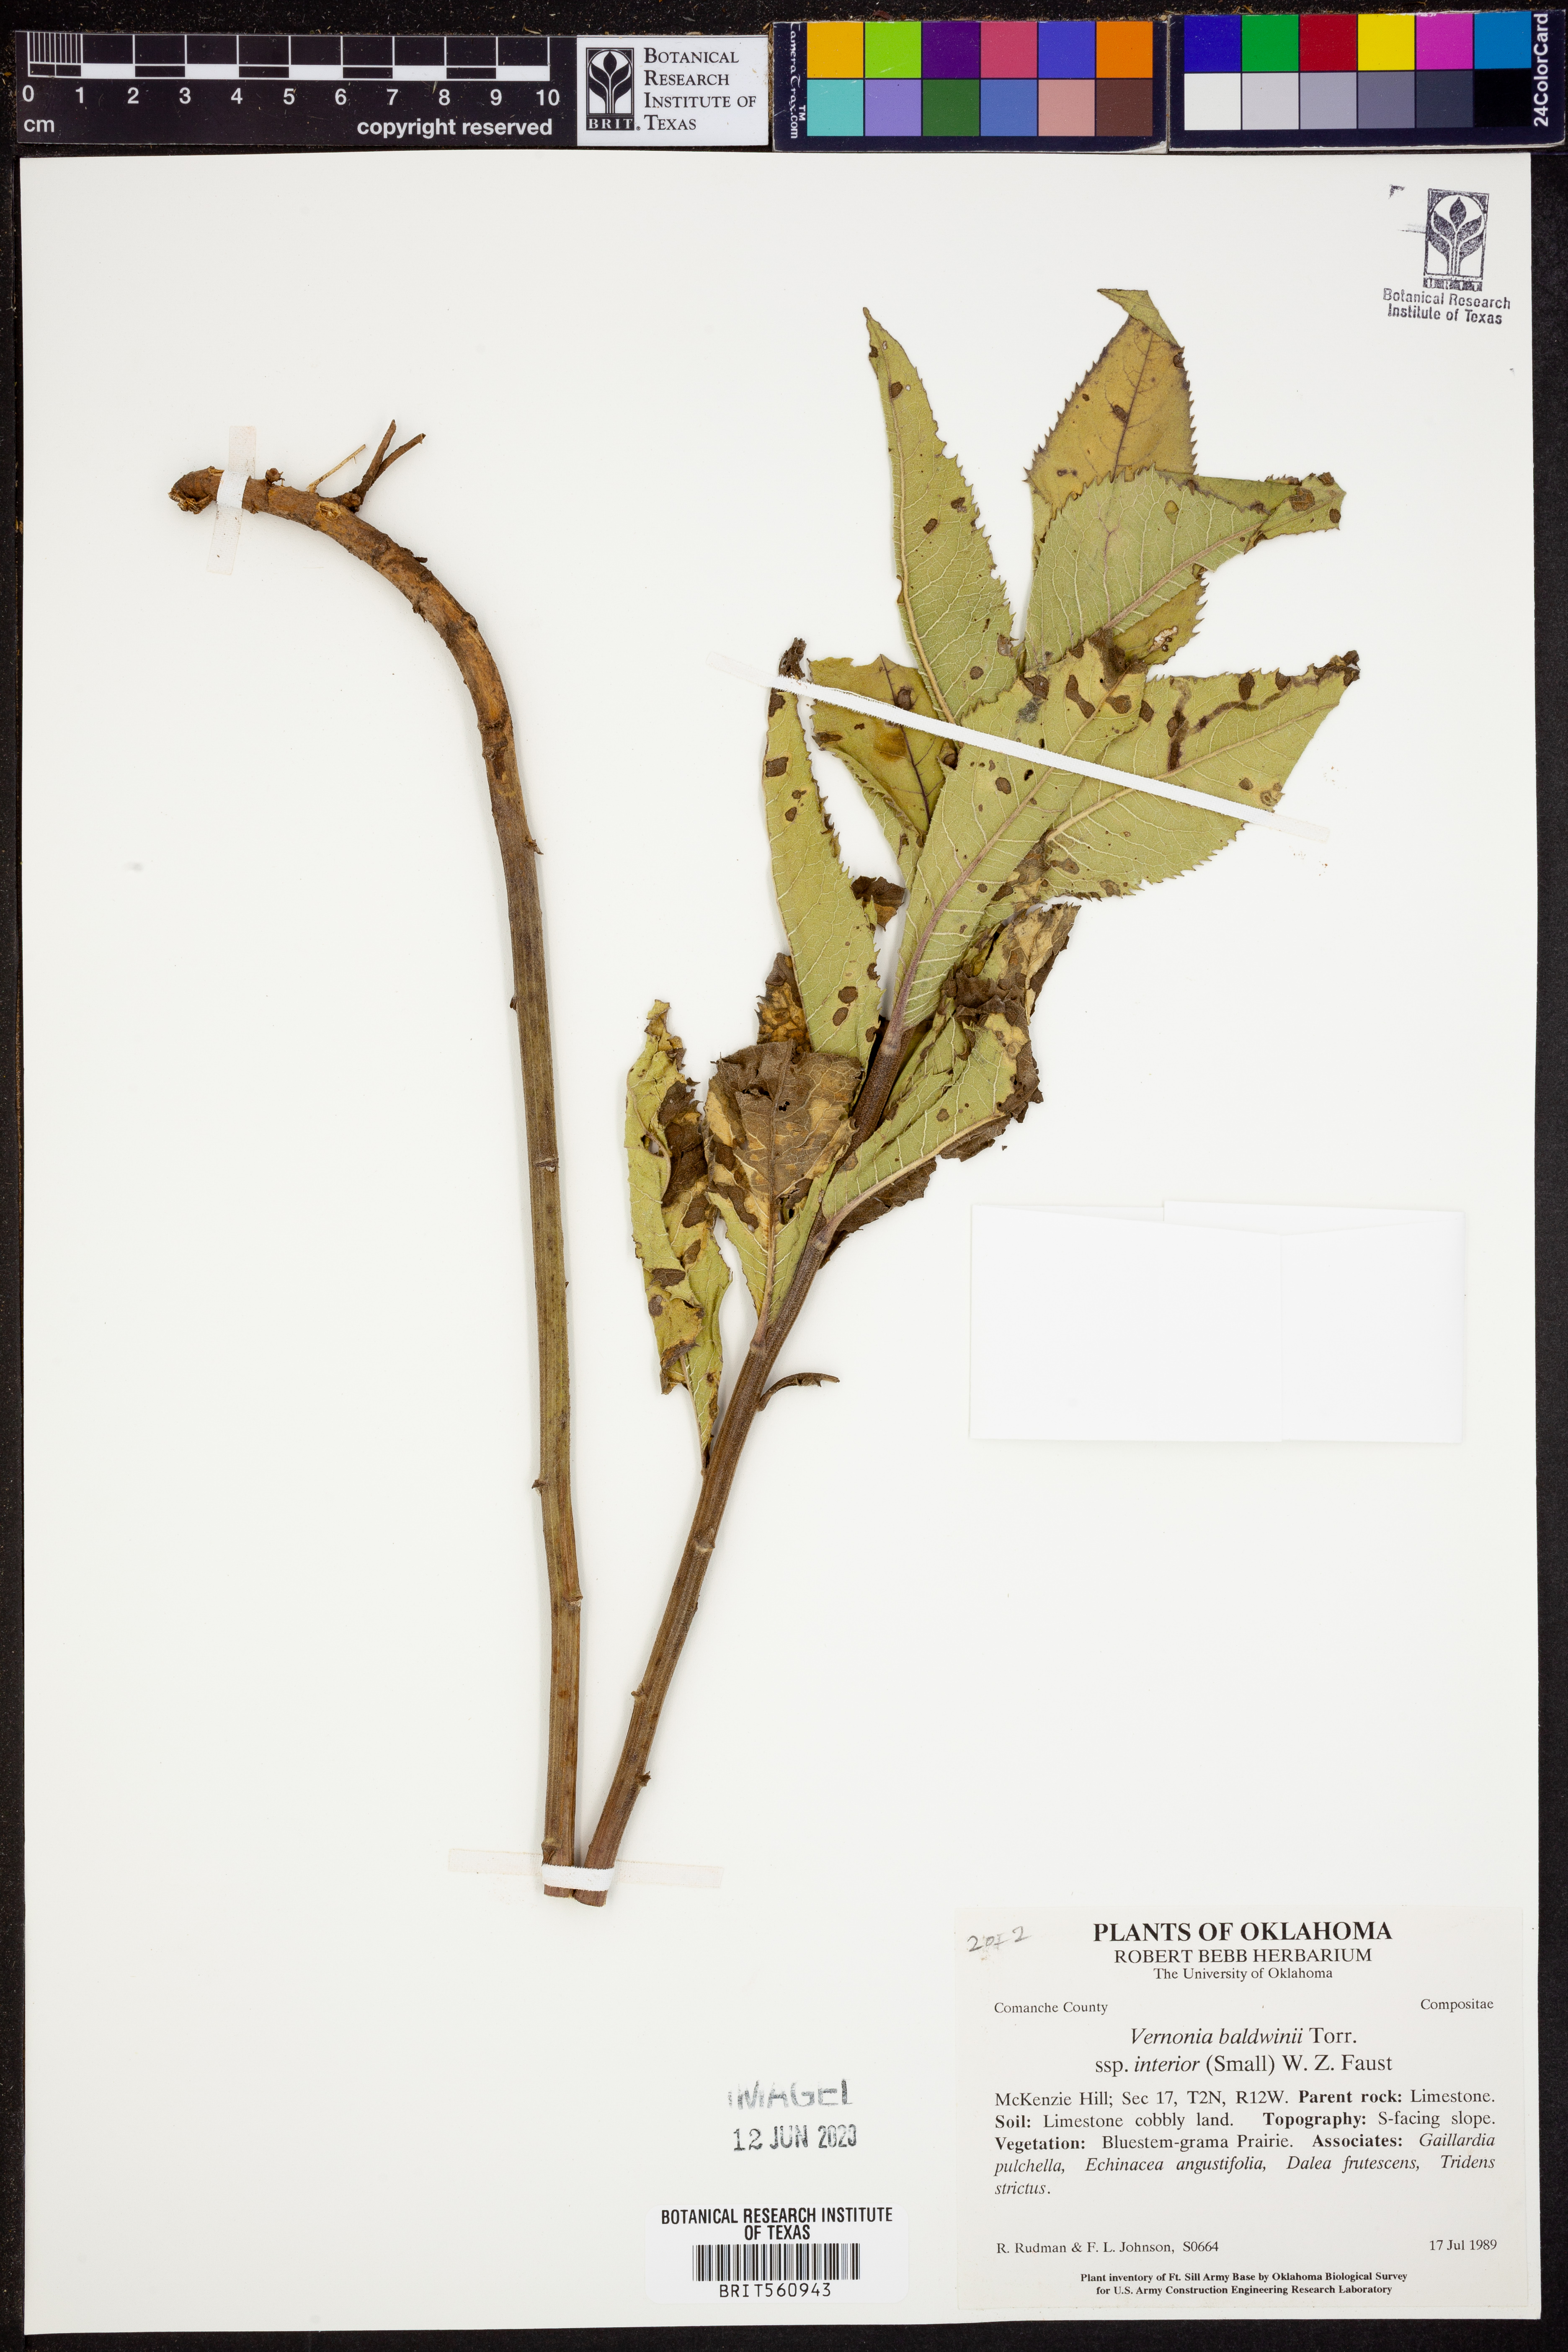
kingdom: Plantae
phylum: Tracheophyta
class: Magnoliopsida
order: Asterales
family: Asteraceae
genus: Vernonia
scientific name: Vernonia baldwinii
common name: Western ironweed
